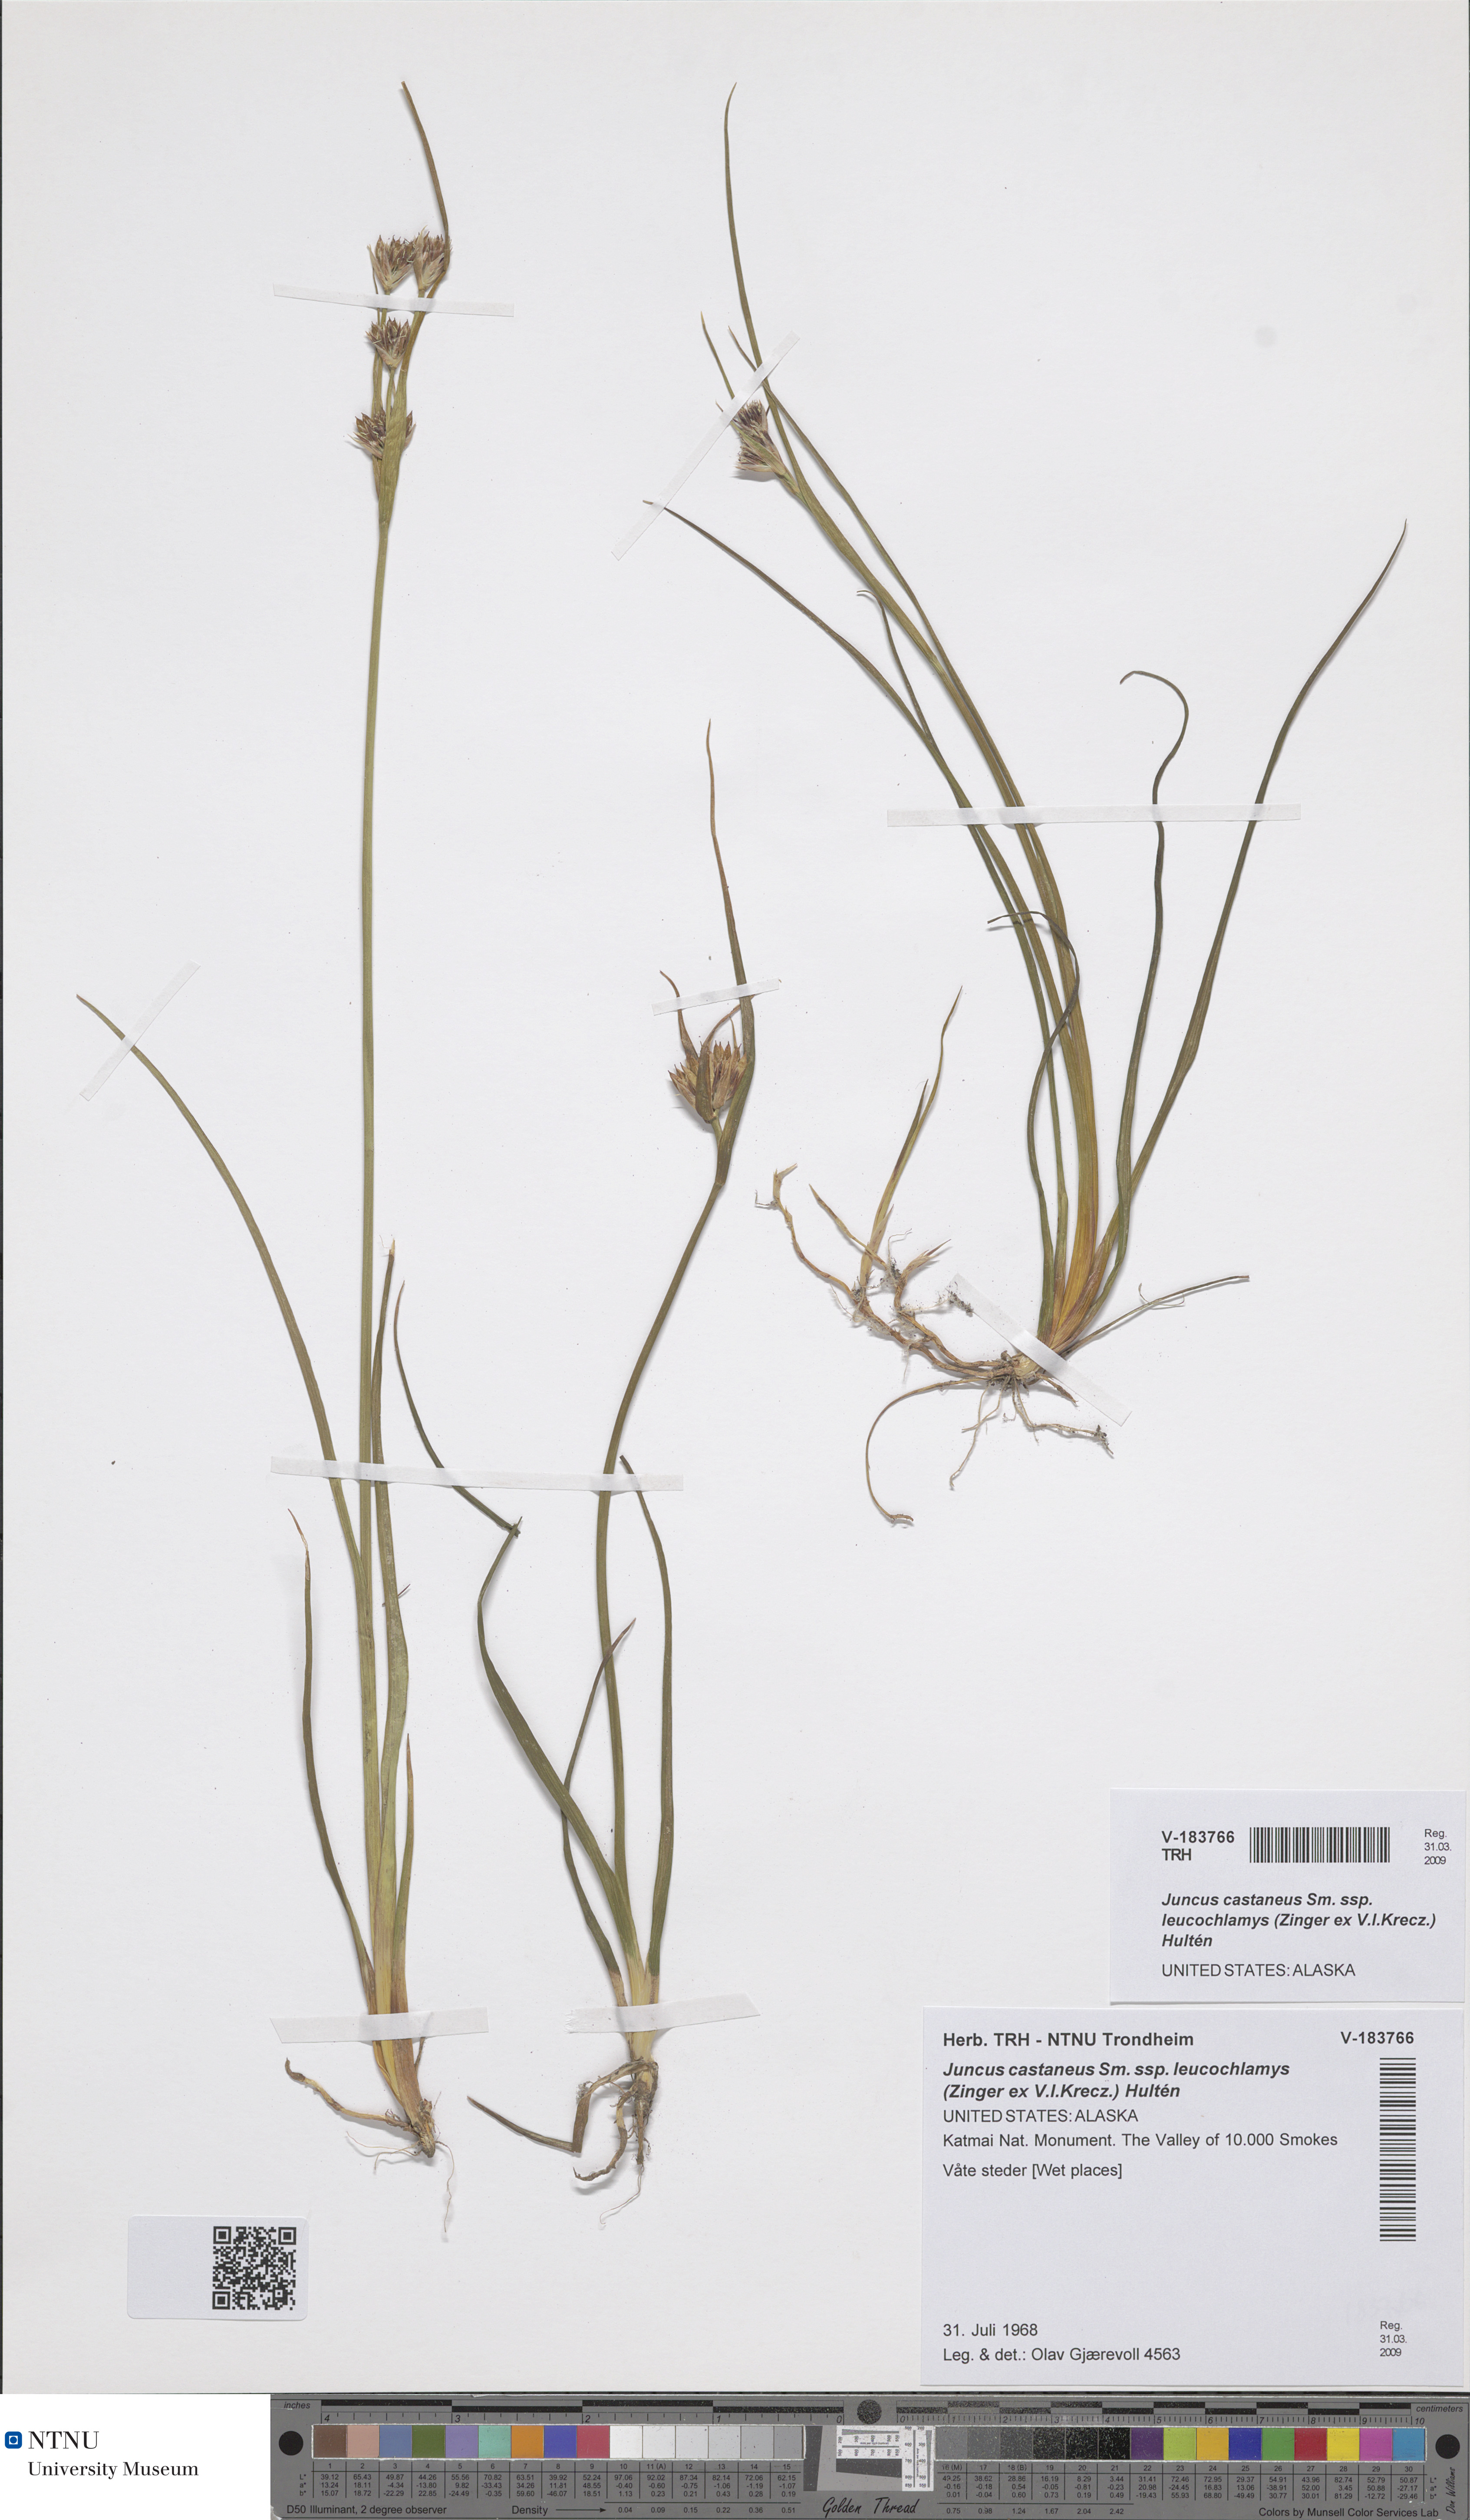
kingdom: Plantae
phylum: Tracheophyta
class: Liliopsida
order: Poales
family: Juncaceae
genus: Juncus
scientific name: Juncus castaneus
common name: Chestnut rush
